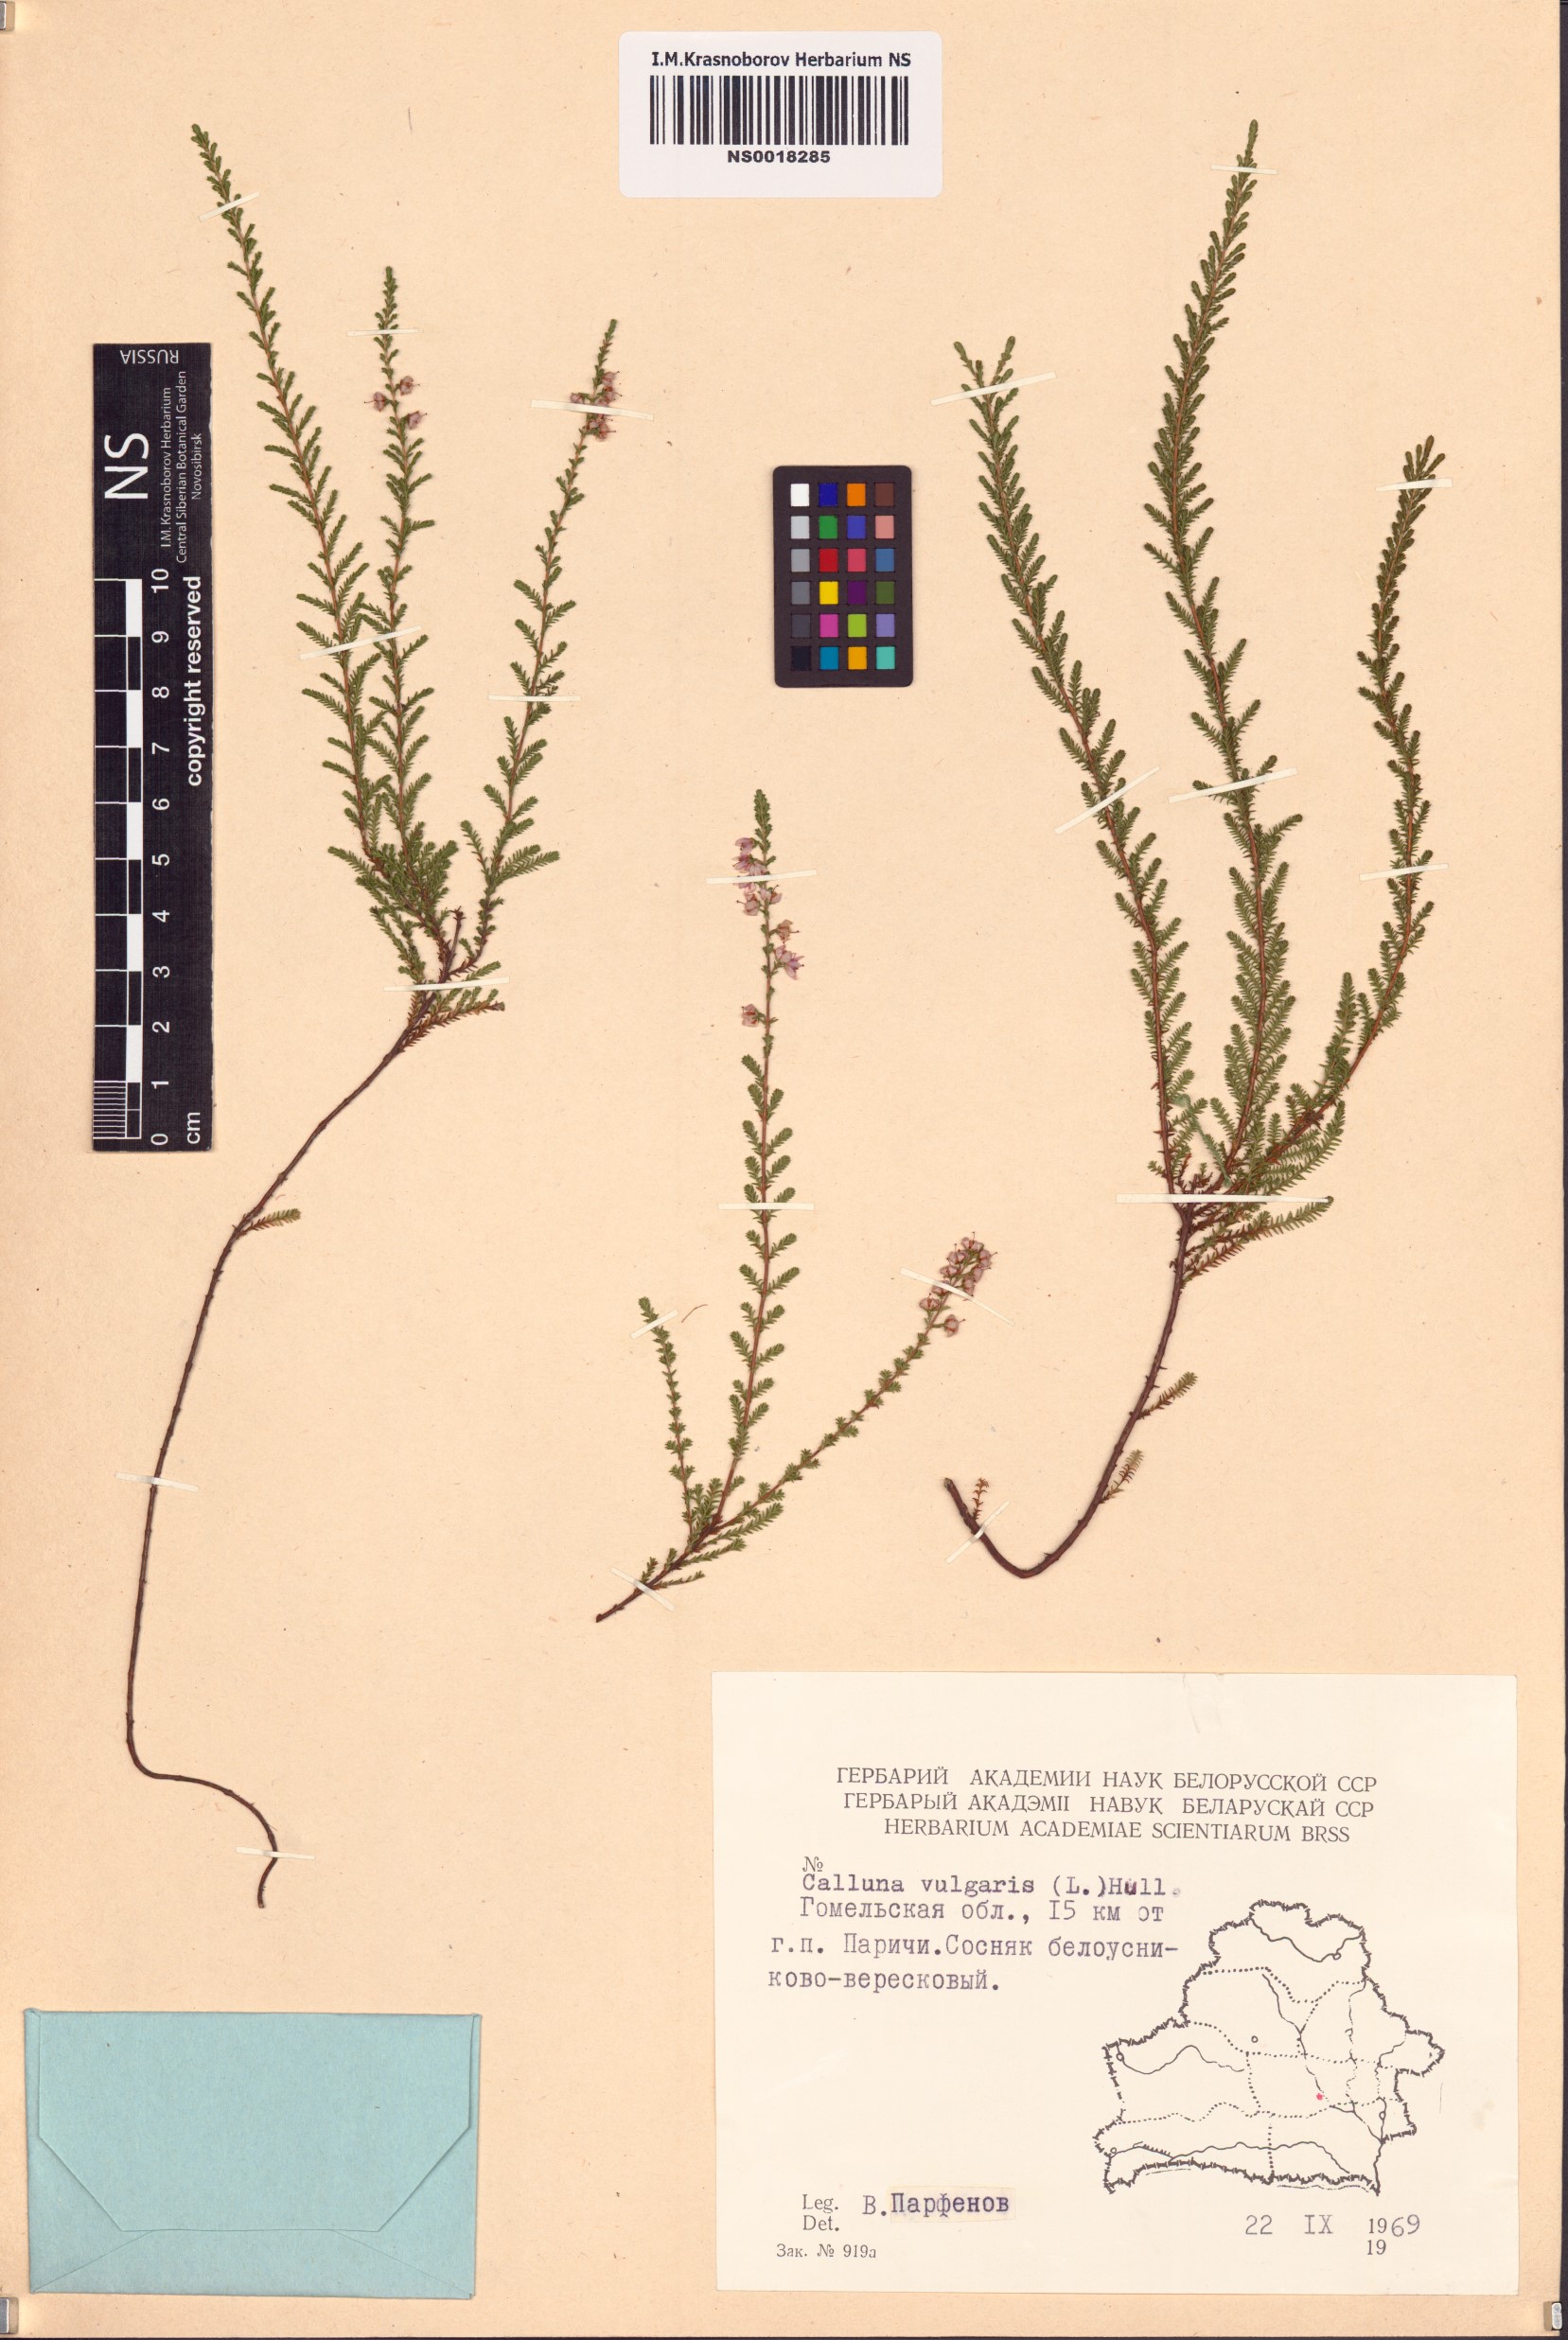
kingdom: Plantae
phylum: Tracheophyta
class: Magnoliopsida
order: Ericales
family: Ericaceae
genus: Calluna
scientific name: Calluna vulgaris
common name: Heather
